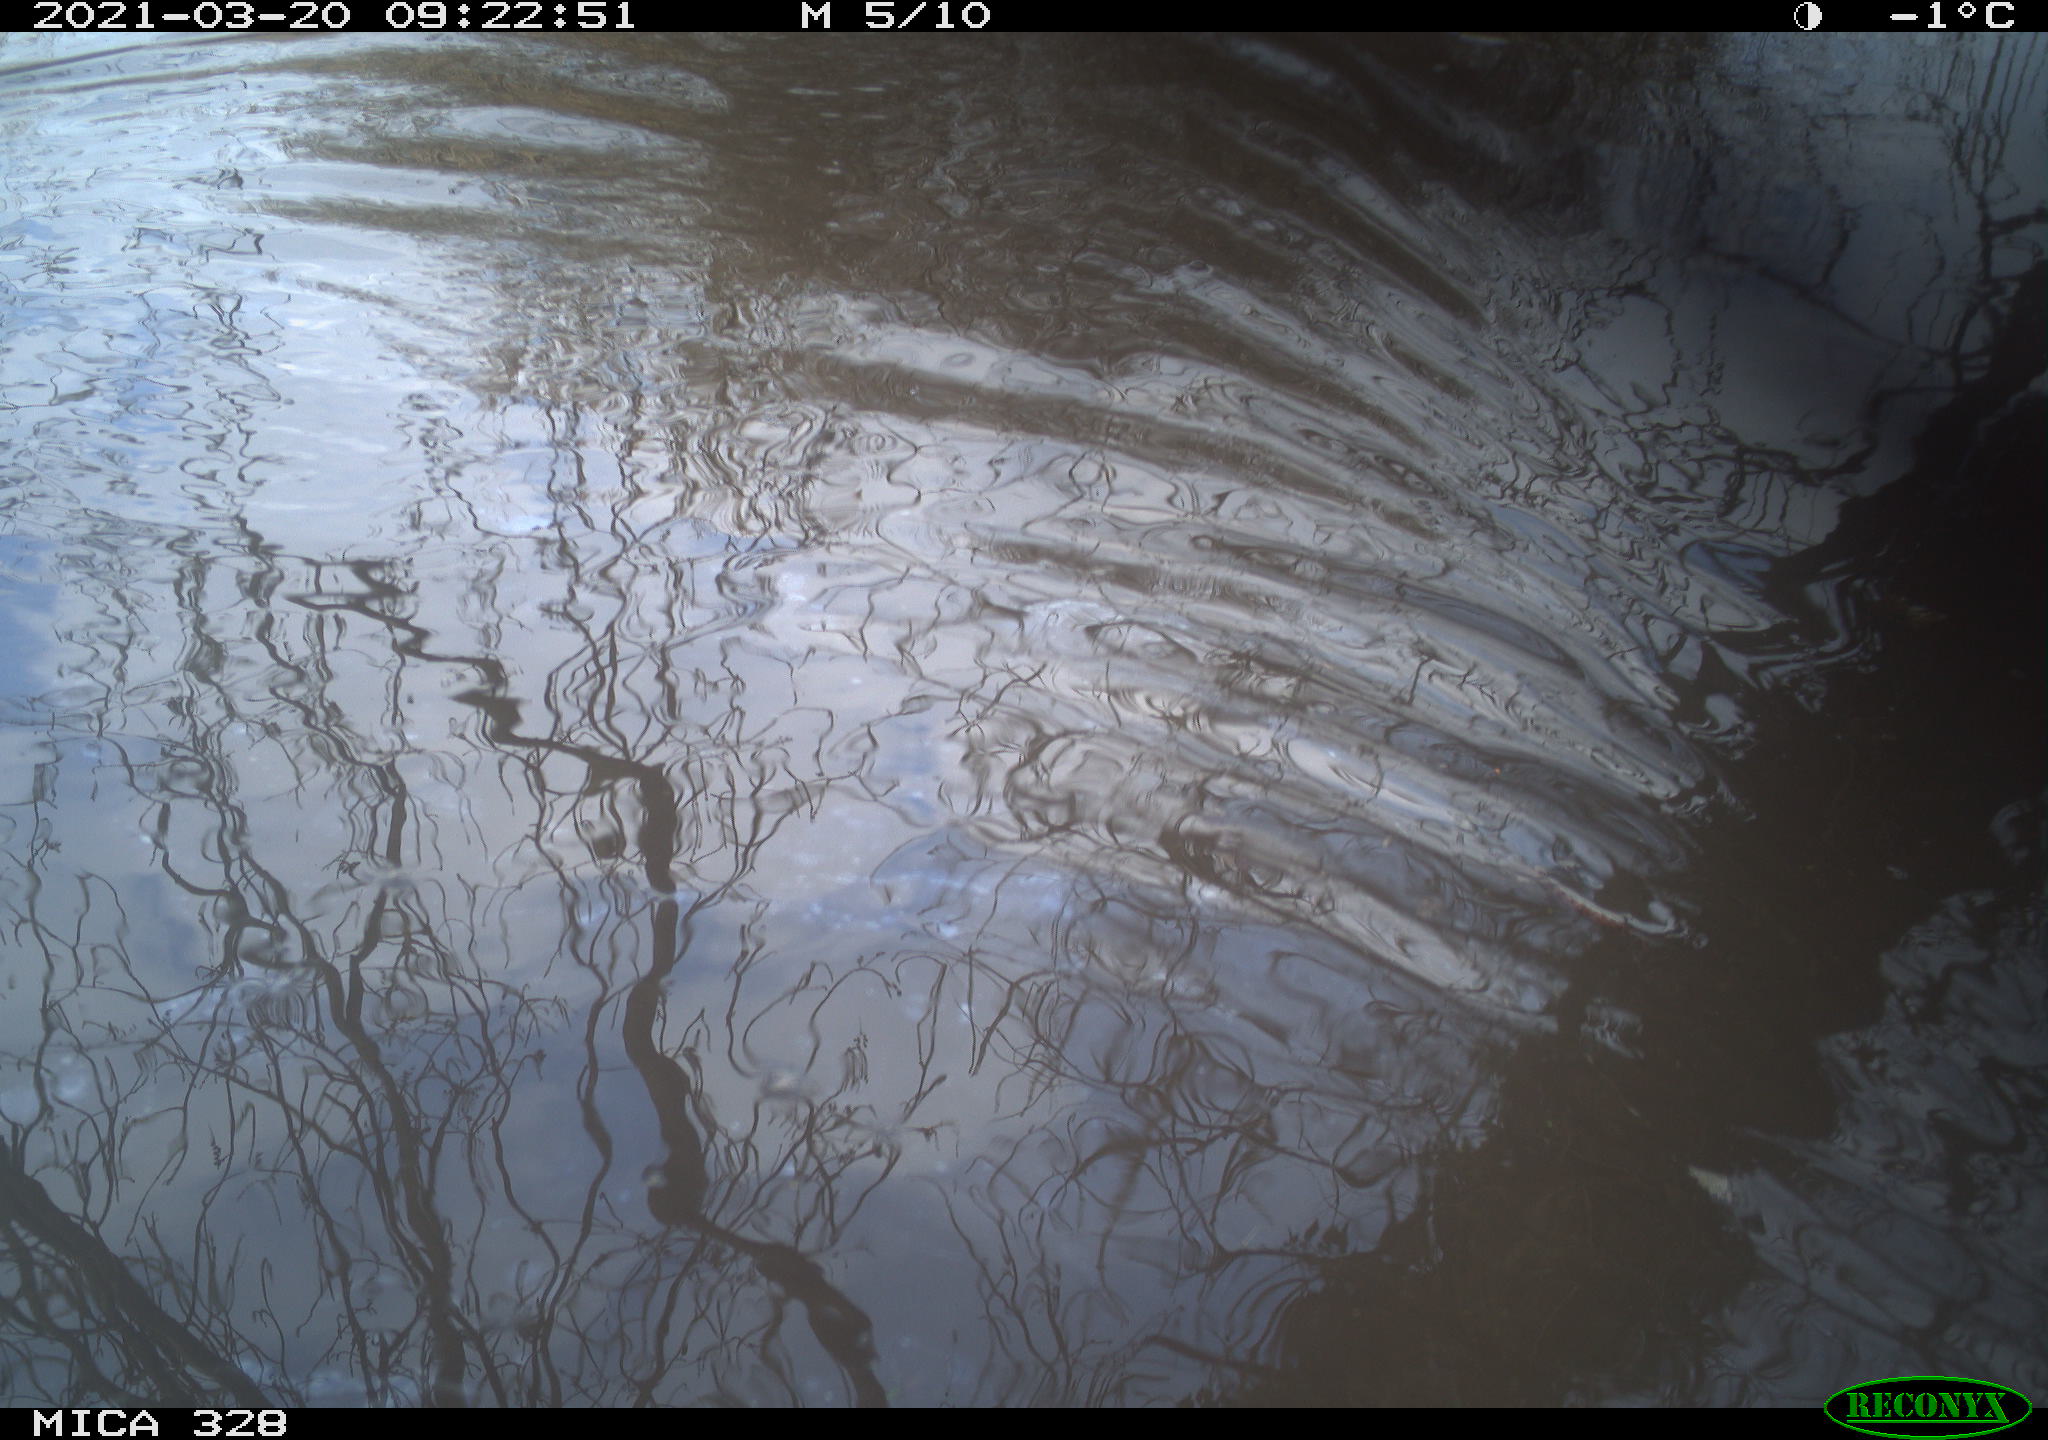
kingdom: Animalia
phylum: Chordata
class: Aves
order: Anseriformes
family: Anatidae
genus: Anas
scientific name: Anas platyrhynchos
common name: Mallard
